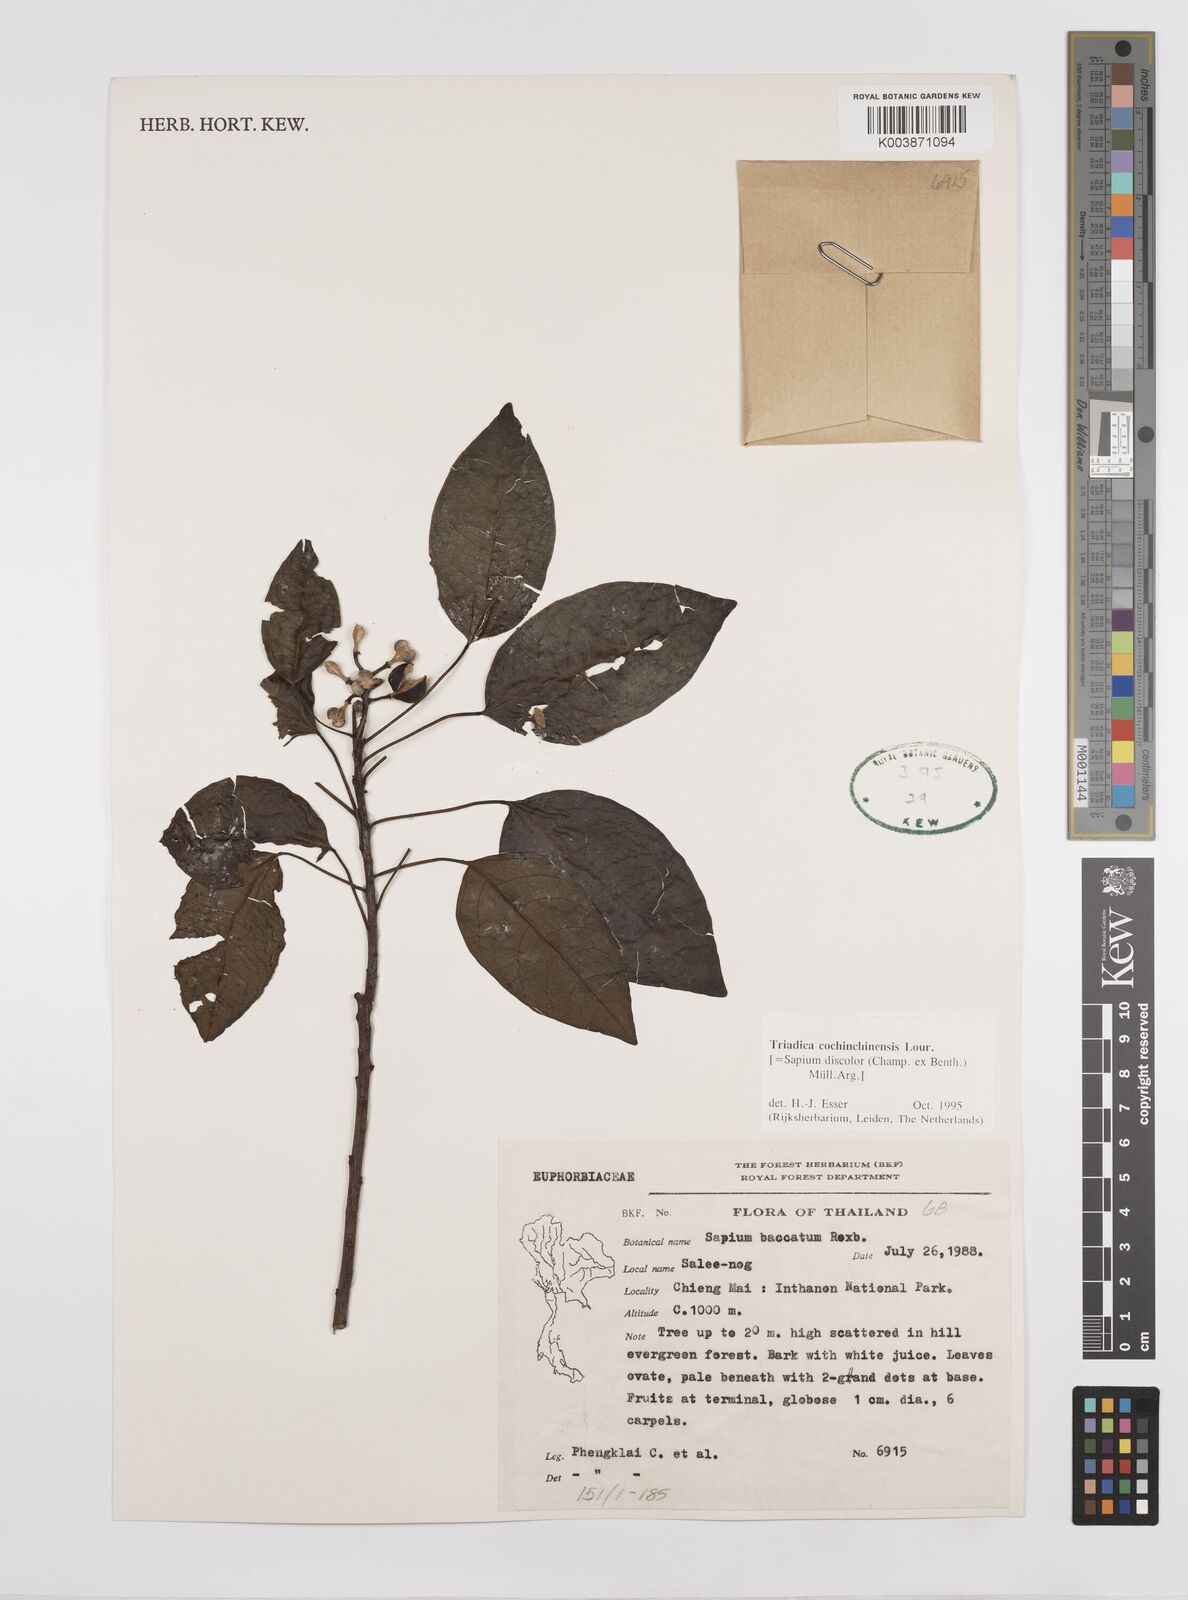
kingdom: Plantae
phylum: Tracheophyta
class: Magnoliopsida
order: Malpighiales
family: Euphorbiaceae
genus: Triadica
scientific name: Triadica cochinchinensis
